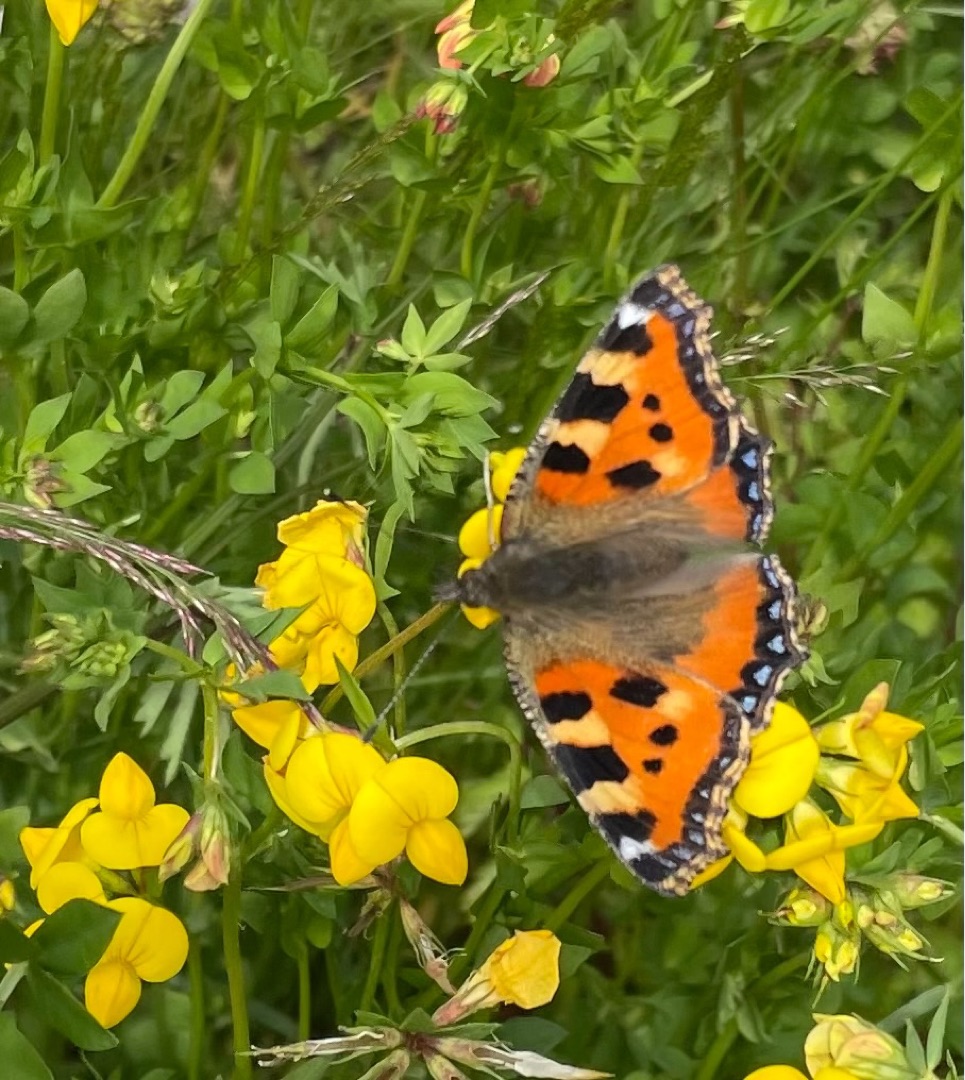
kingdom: Animalia
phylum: Arthropoda
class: Insecta
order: Lepidoptera
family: Nymphalidae
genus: Aglais
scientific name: Aglais urticae
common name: Nældens takvinge
